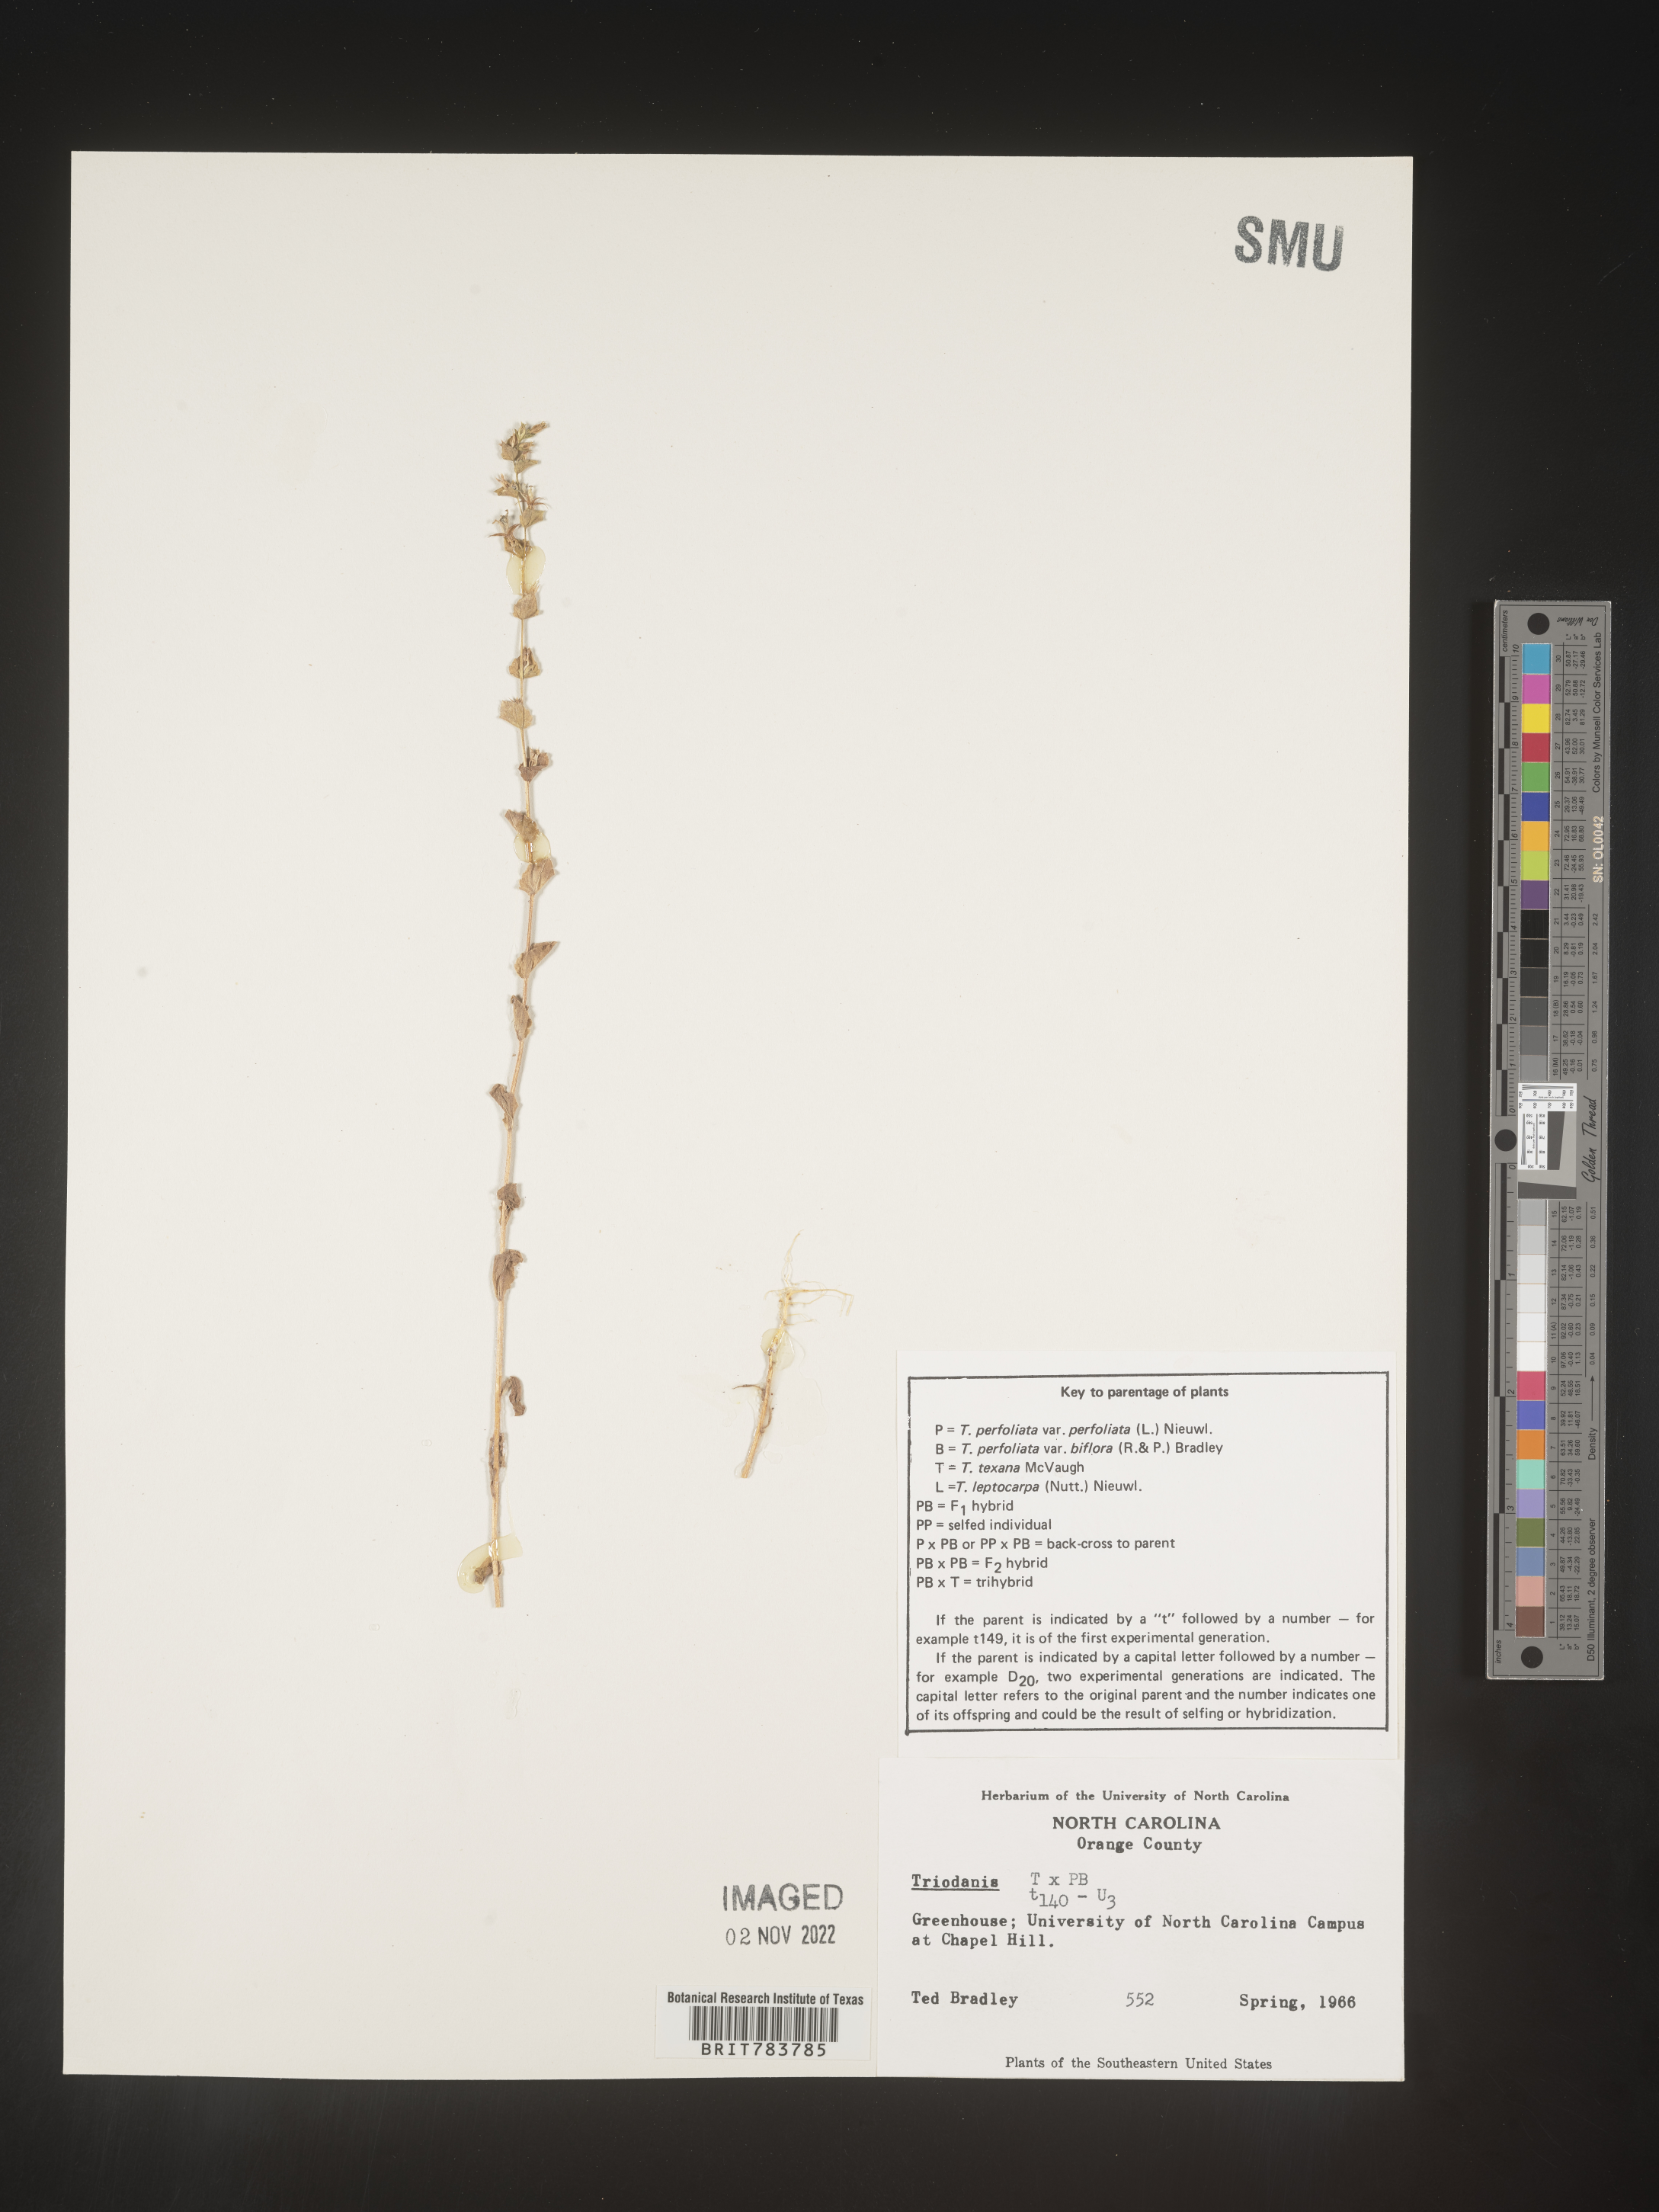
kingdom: Plantae
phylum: Tracheophyta
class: Magnoliopsida
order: Asterales
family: Campanulaceae
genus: Triodanis
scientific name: Triodanis
